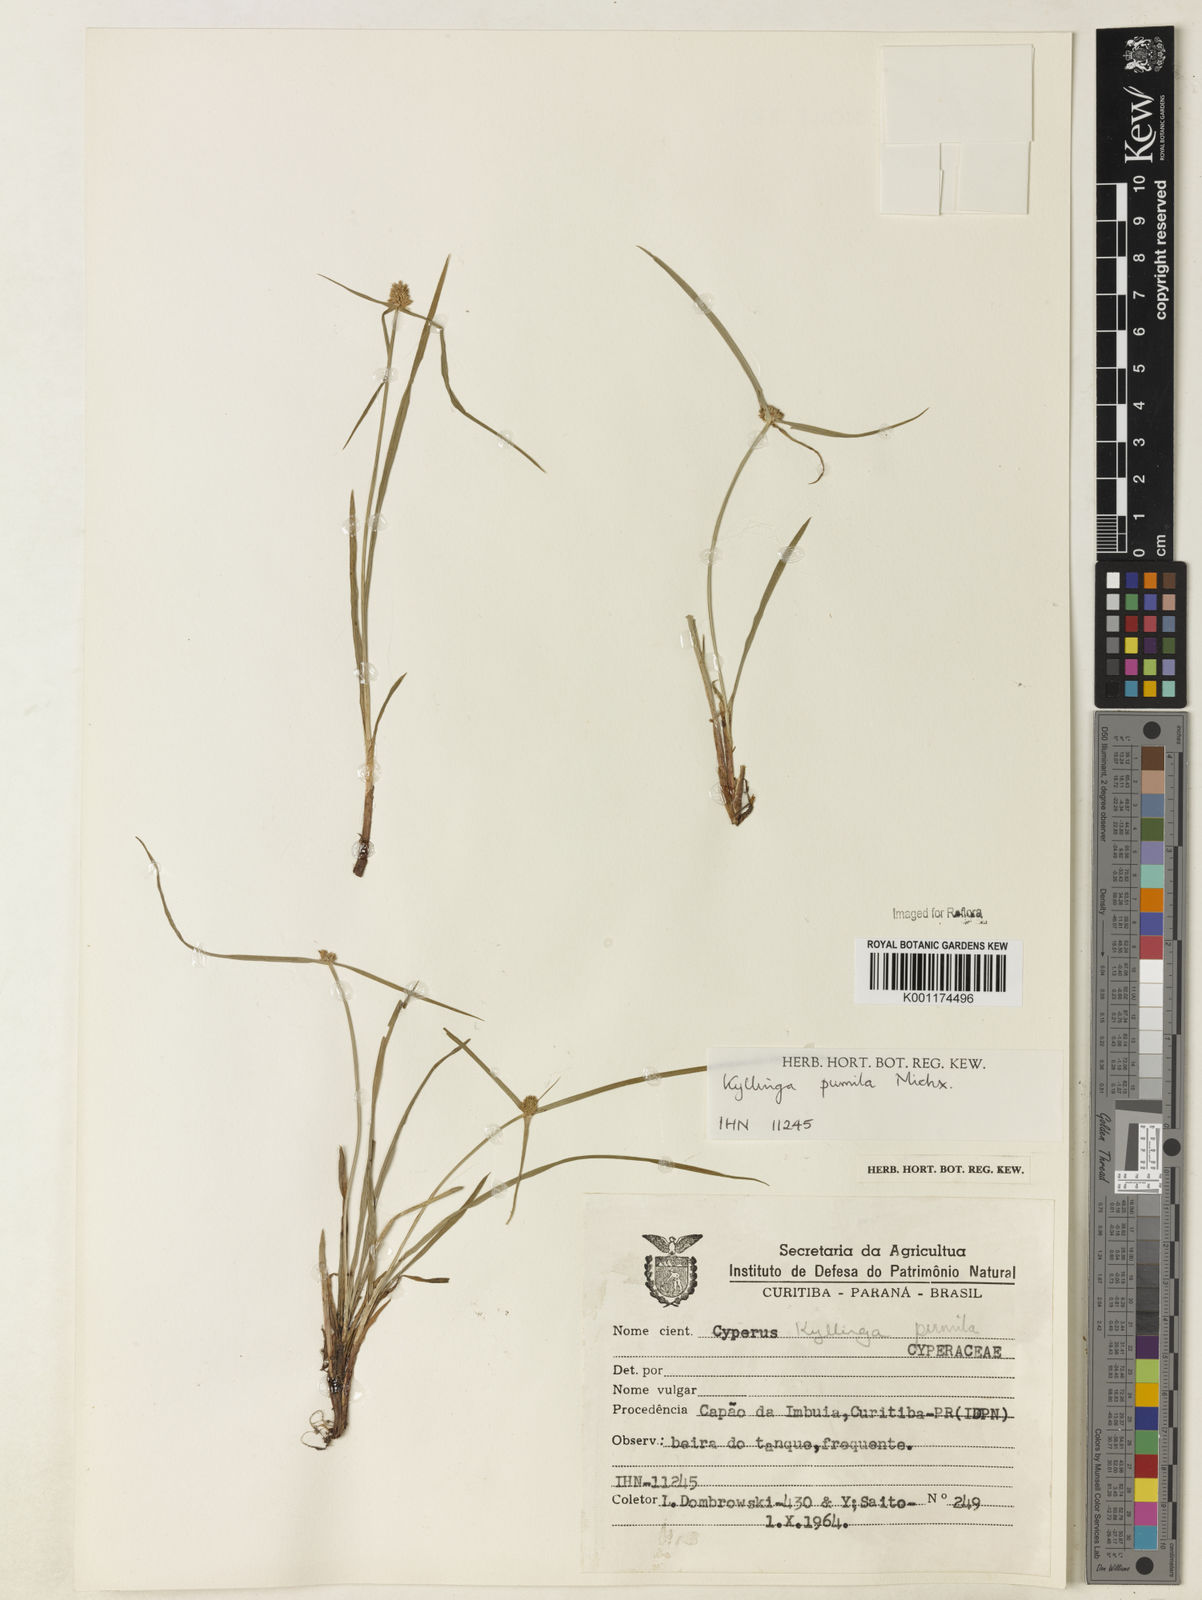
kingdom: Plantae
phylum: Tracheophyta
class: Liliopsida
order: Poales
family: Cyperaceae
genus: Cyperus
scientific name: Cyperus
